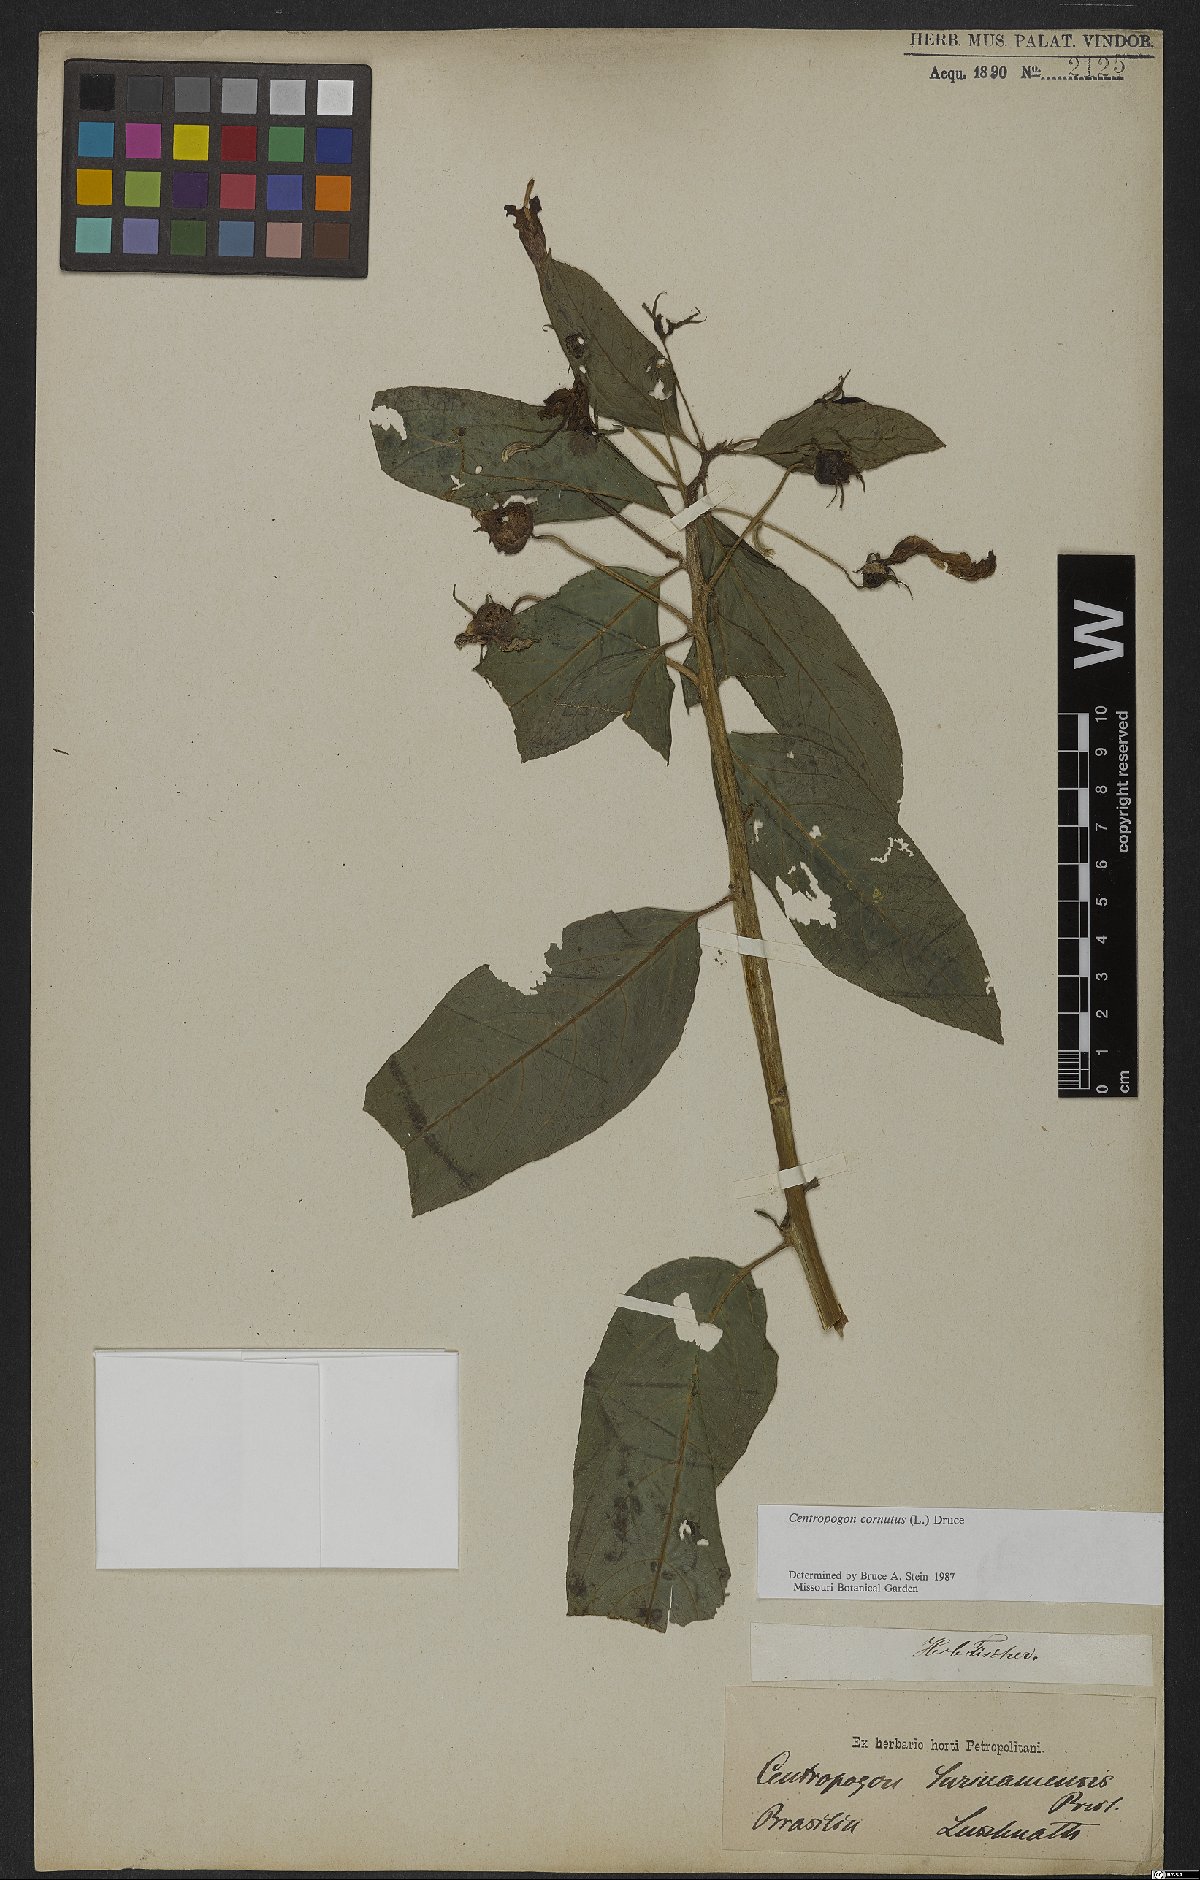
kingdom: Plantae
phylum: Tracheophyta
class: Magnoliopsida
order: Asterales
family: Campanulaceae
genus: Centropogon
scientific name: Centropogon cornutus
